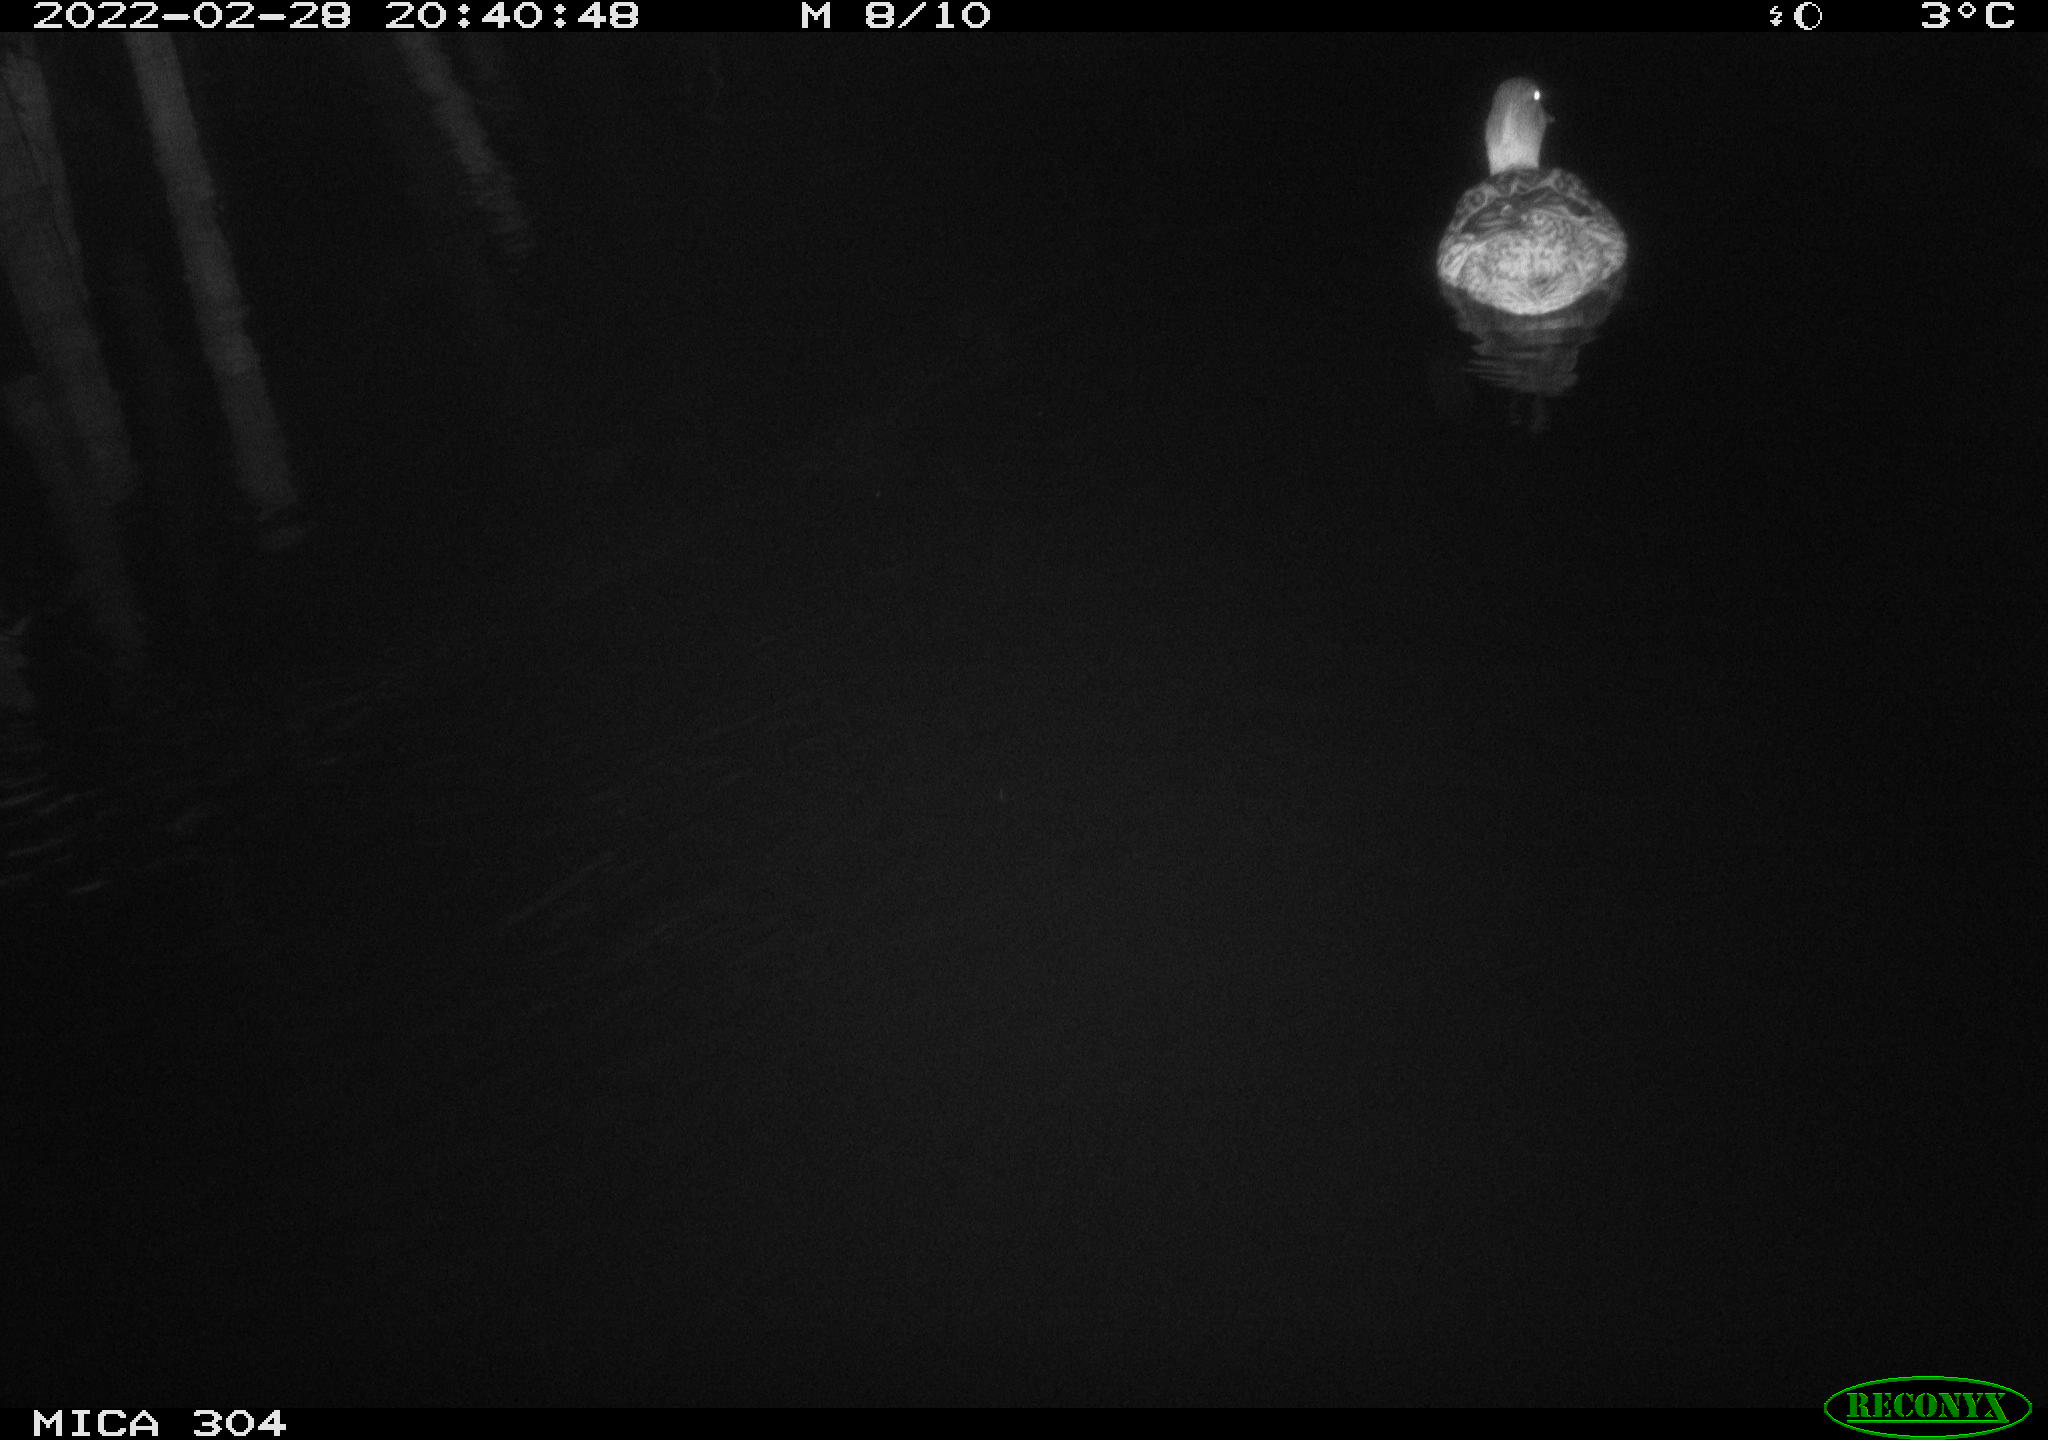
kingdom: Animalia
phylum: Chordata
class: Aves
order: Anseriformes
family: Anatidae
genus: Anas
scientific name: Anas platyrhynchos
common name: Mallard
